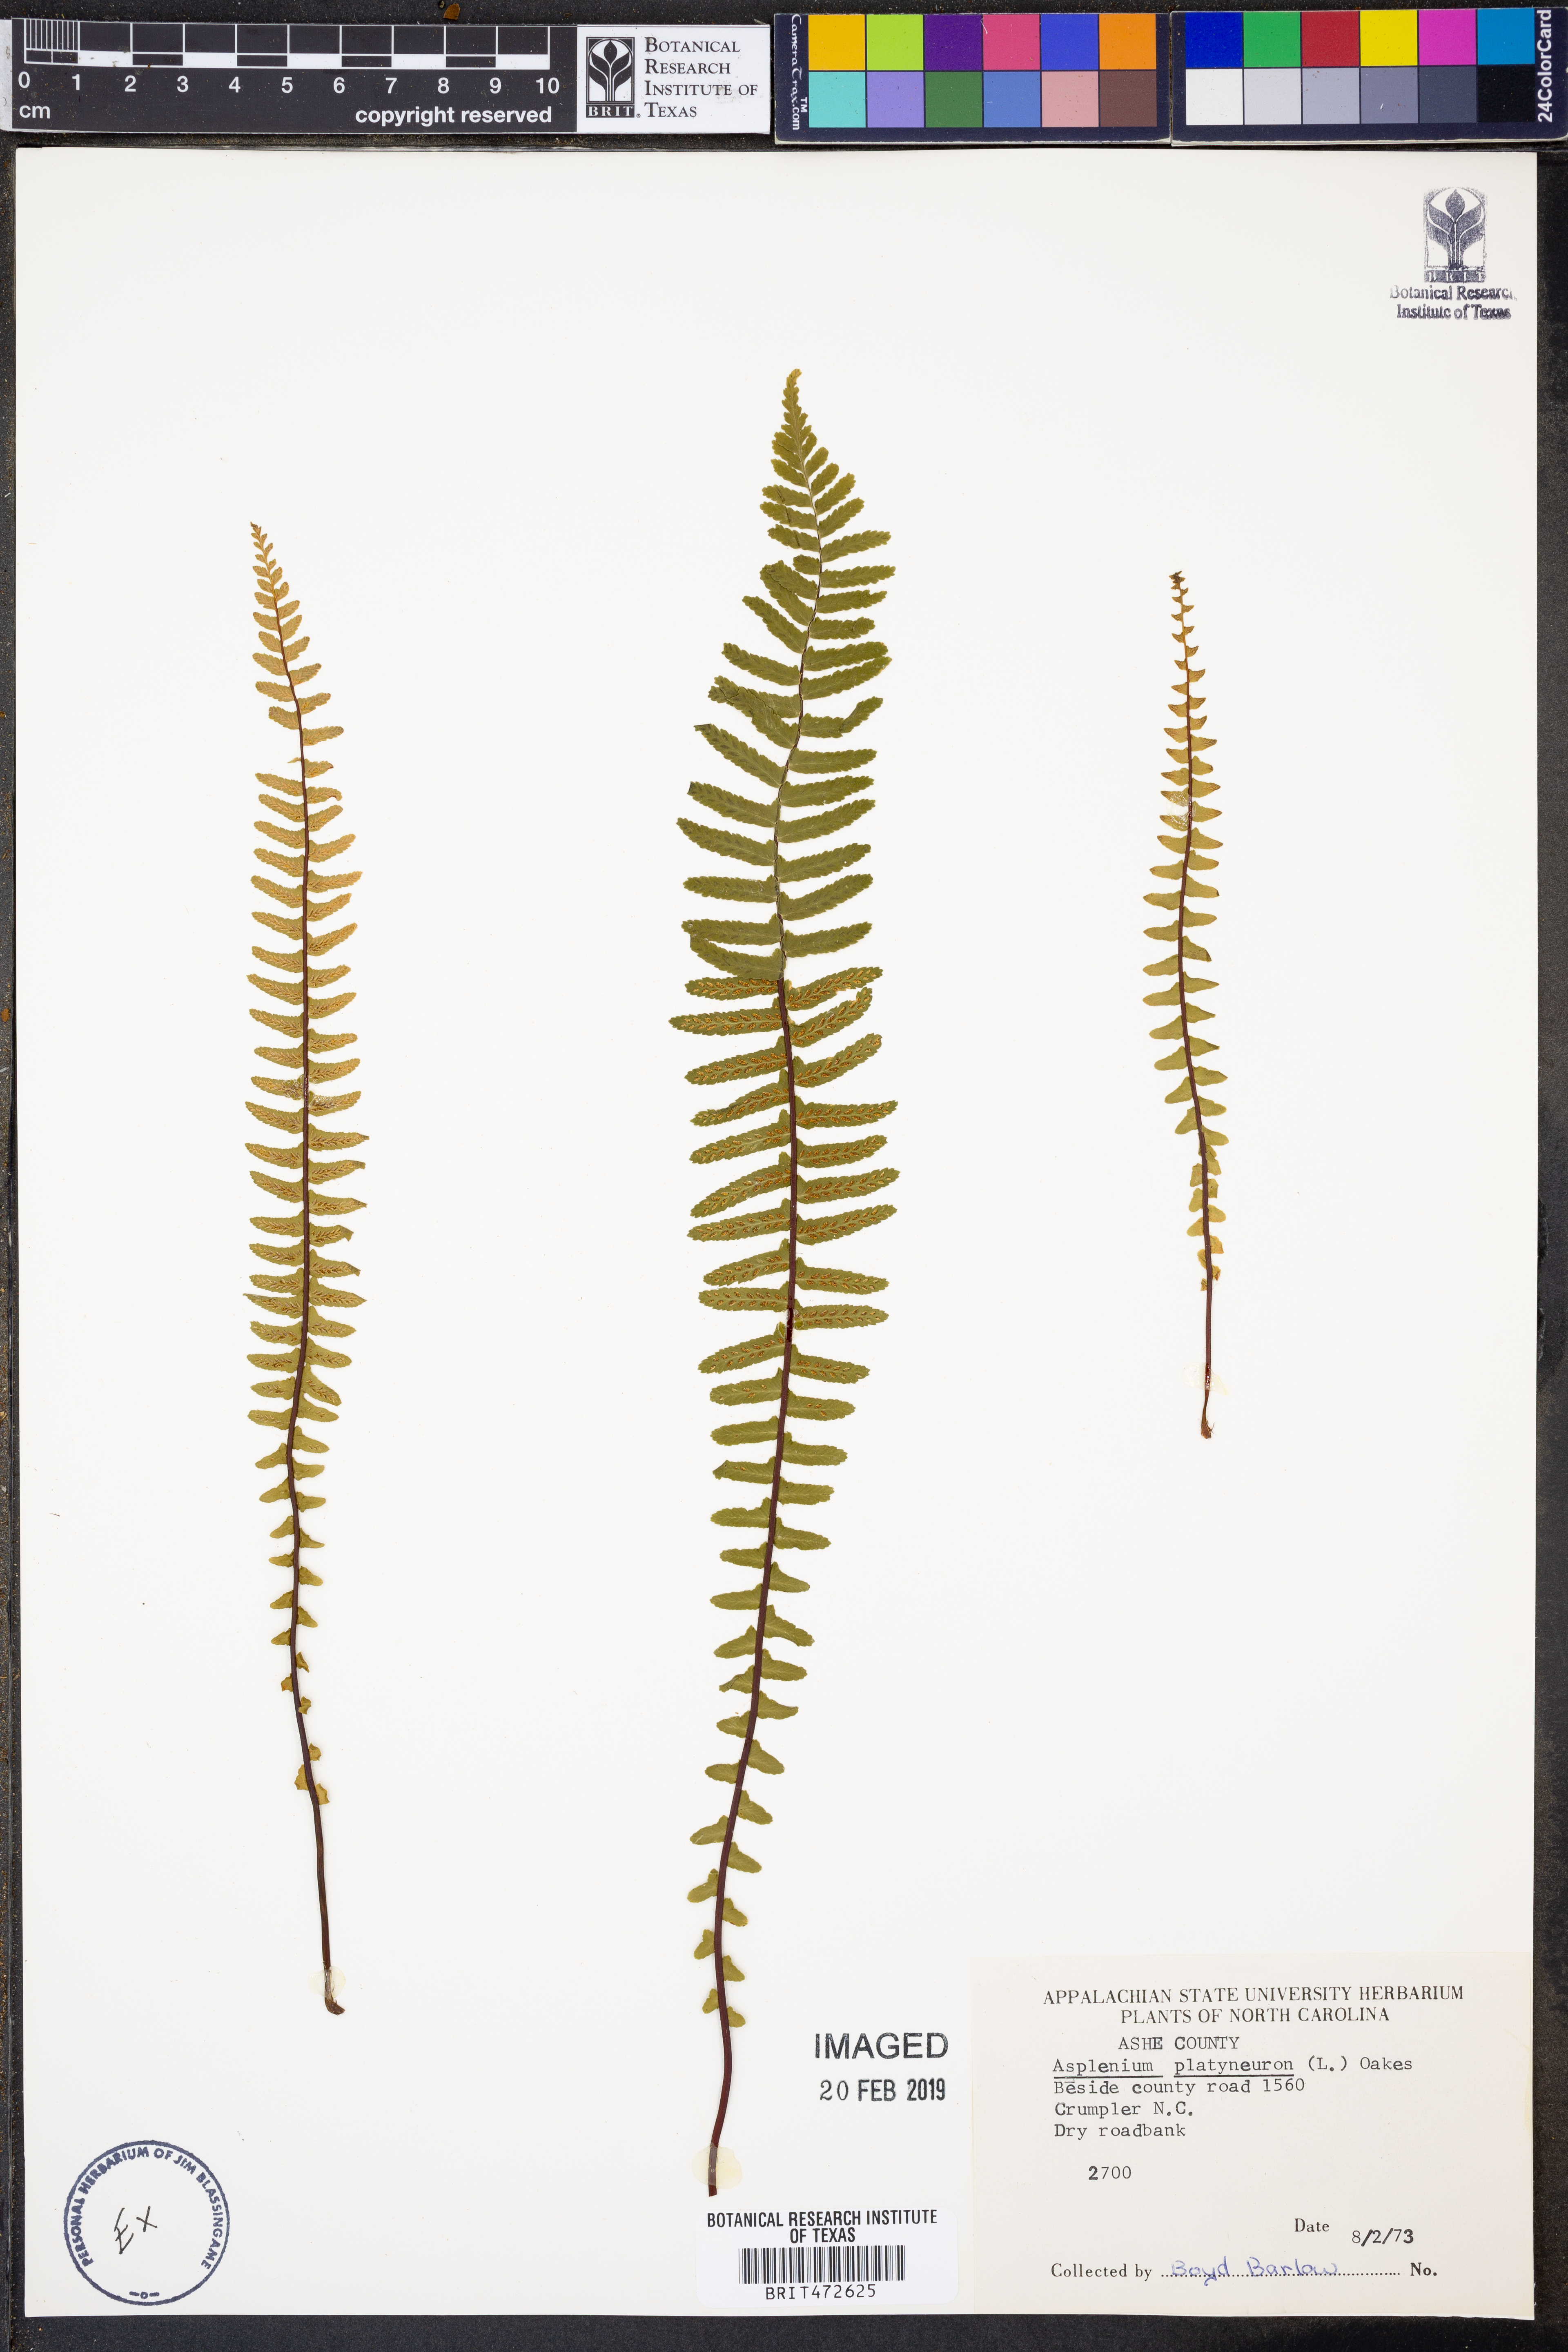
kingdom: Plantae
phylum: Tracheophyta
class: Polypodiopsida
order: Polypodiales
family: Aspleniaceae
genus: Asplenium
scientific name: Asplenium platyneuron
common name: Ebony spleenwort
